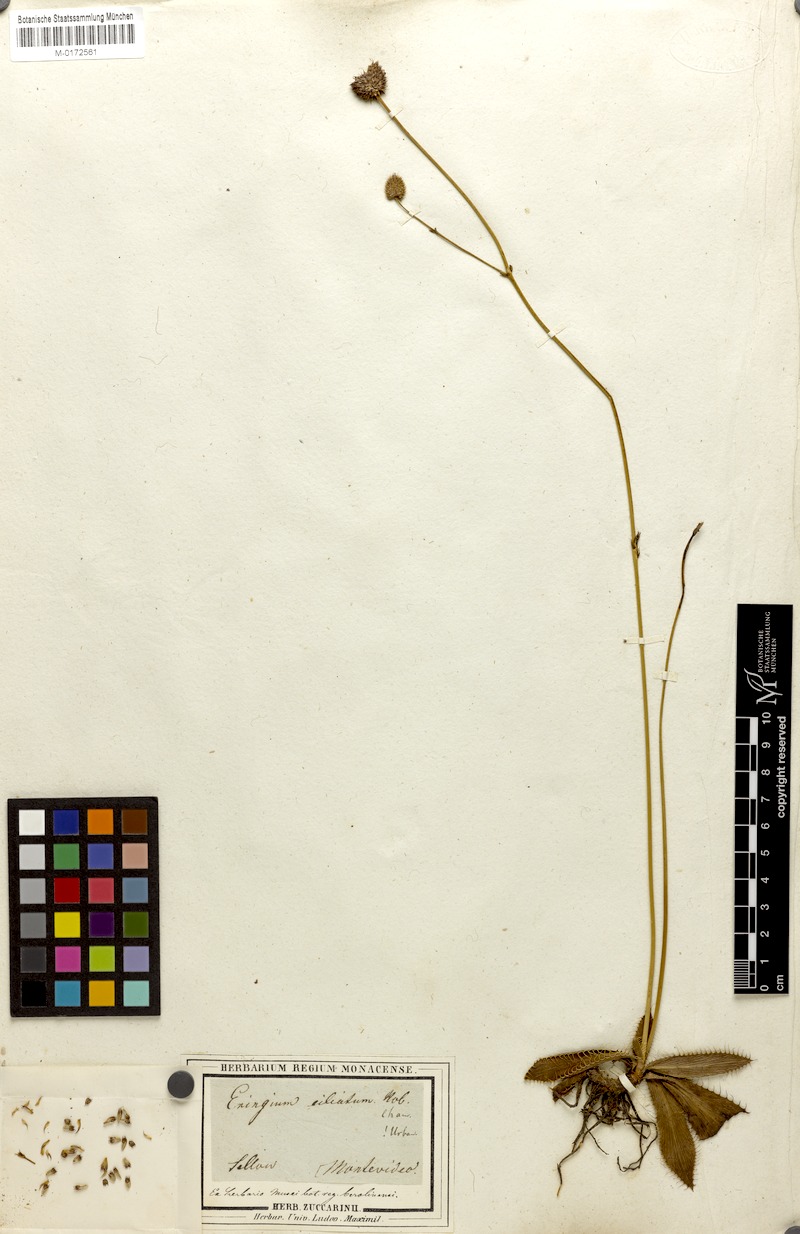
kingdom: Plantae
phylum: Tracheophyta
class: Magnoliopsida
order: Apiales
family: Apiaceae
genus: Eryngium
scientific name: Eryngium ciliatum
